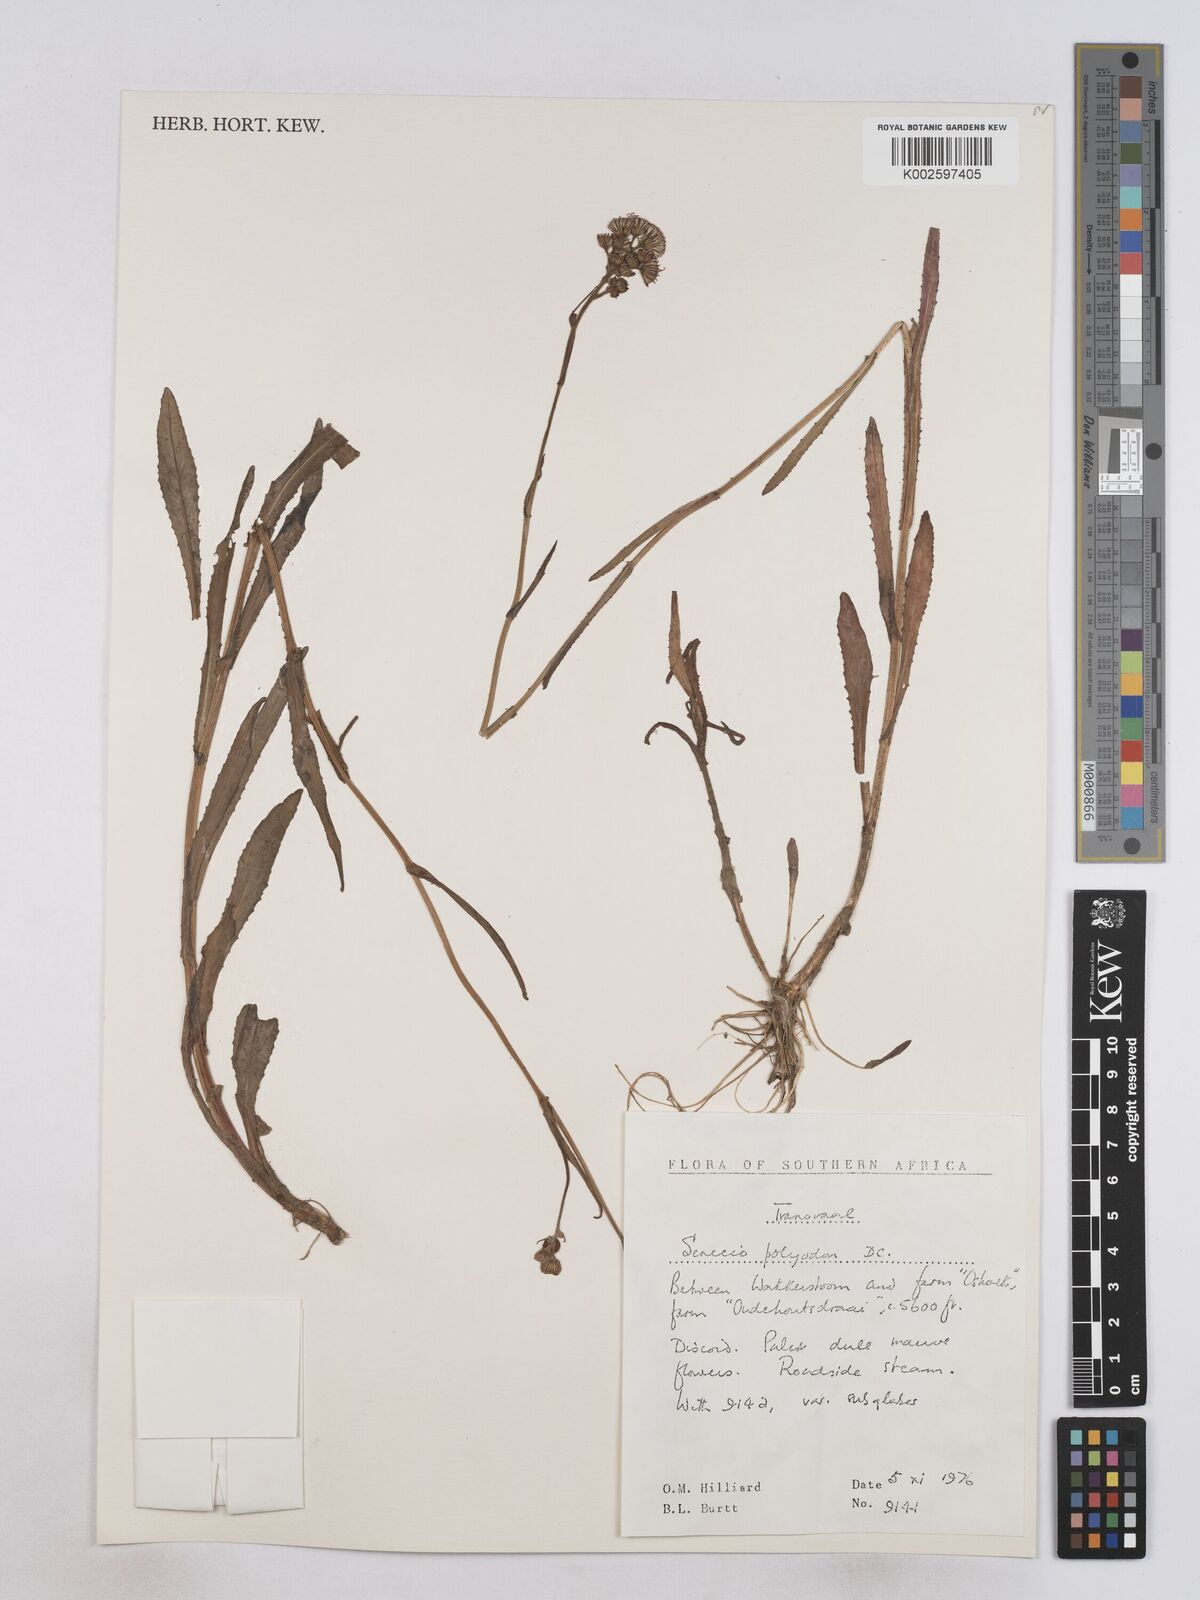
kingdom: Plantae
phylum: Tracheophyta
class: Magnoliopsida
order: Asterales
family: Asteraceae
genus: Senecio
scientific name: Senecio polyodon
